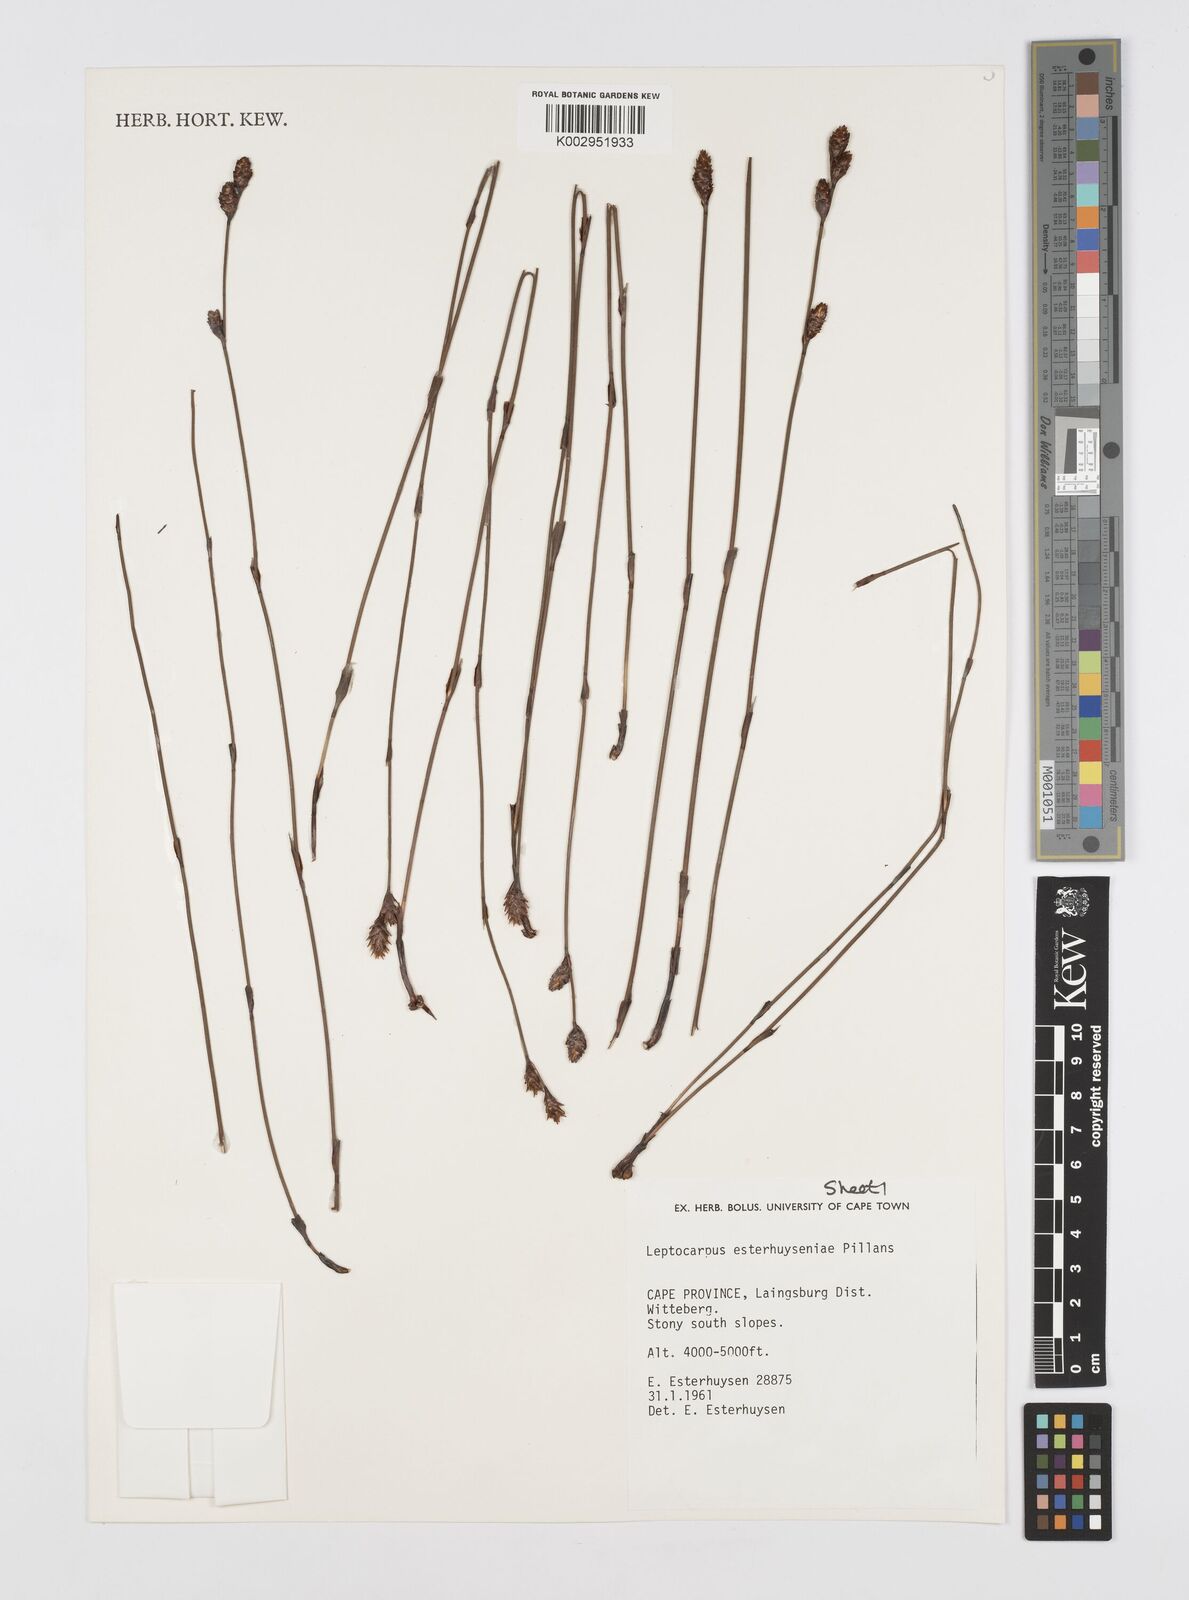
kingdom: Plantae
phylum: Tracheophyta
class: Liliopsida
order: Poales
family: Restionaceae
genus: Restio
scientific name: Restio esterhuyseniae
